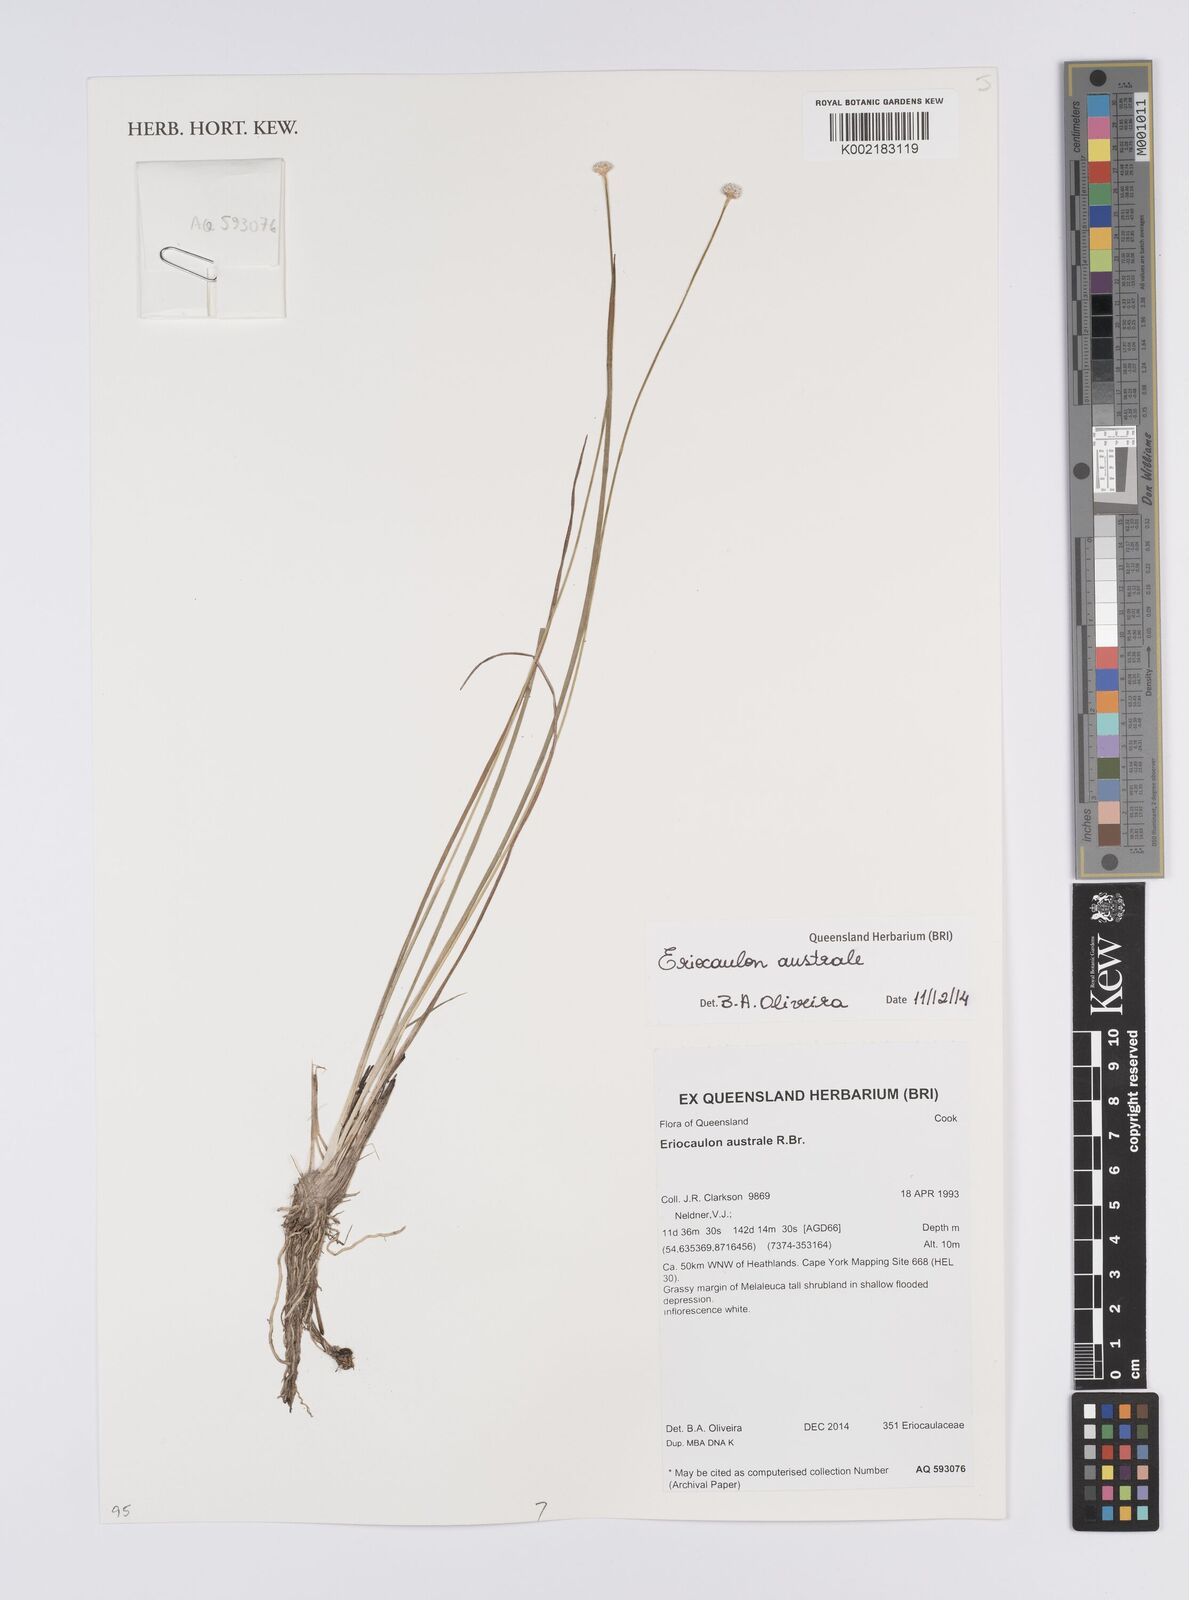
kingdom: Plantae
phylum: Tracheophyta
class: Liliopsida
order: Poales
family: Eriocaulaceae
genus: Eriocaulon
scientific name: Eriocaulon australe
